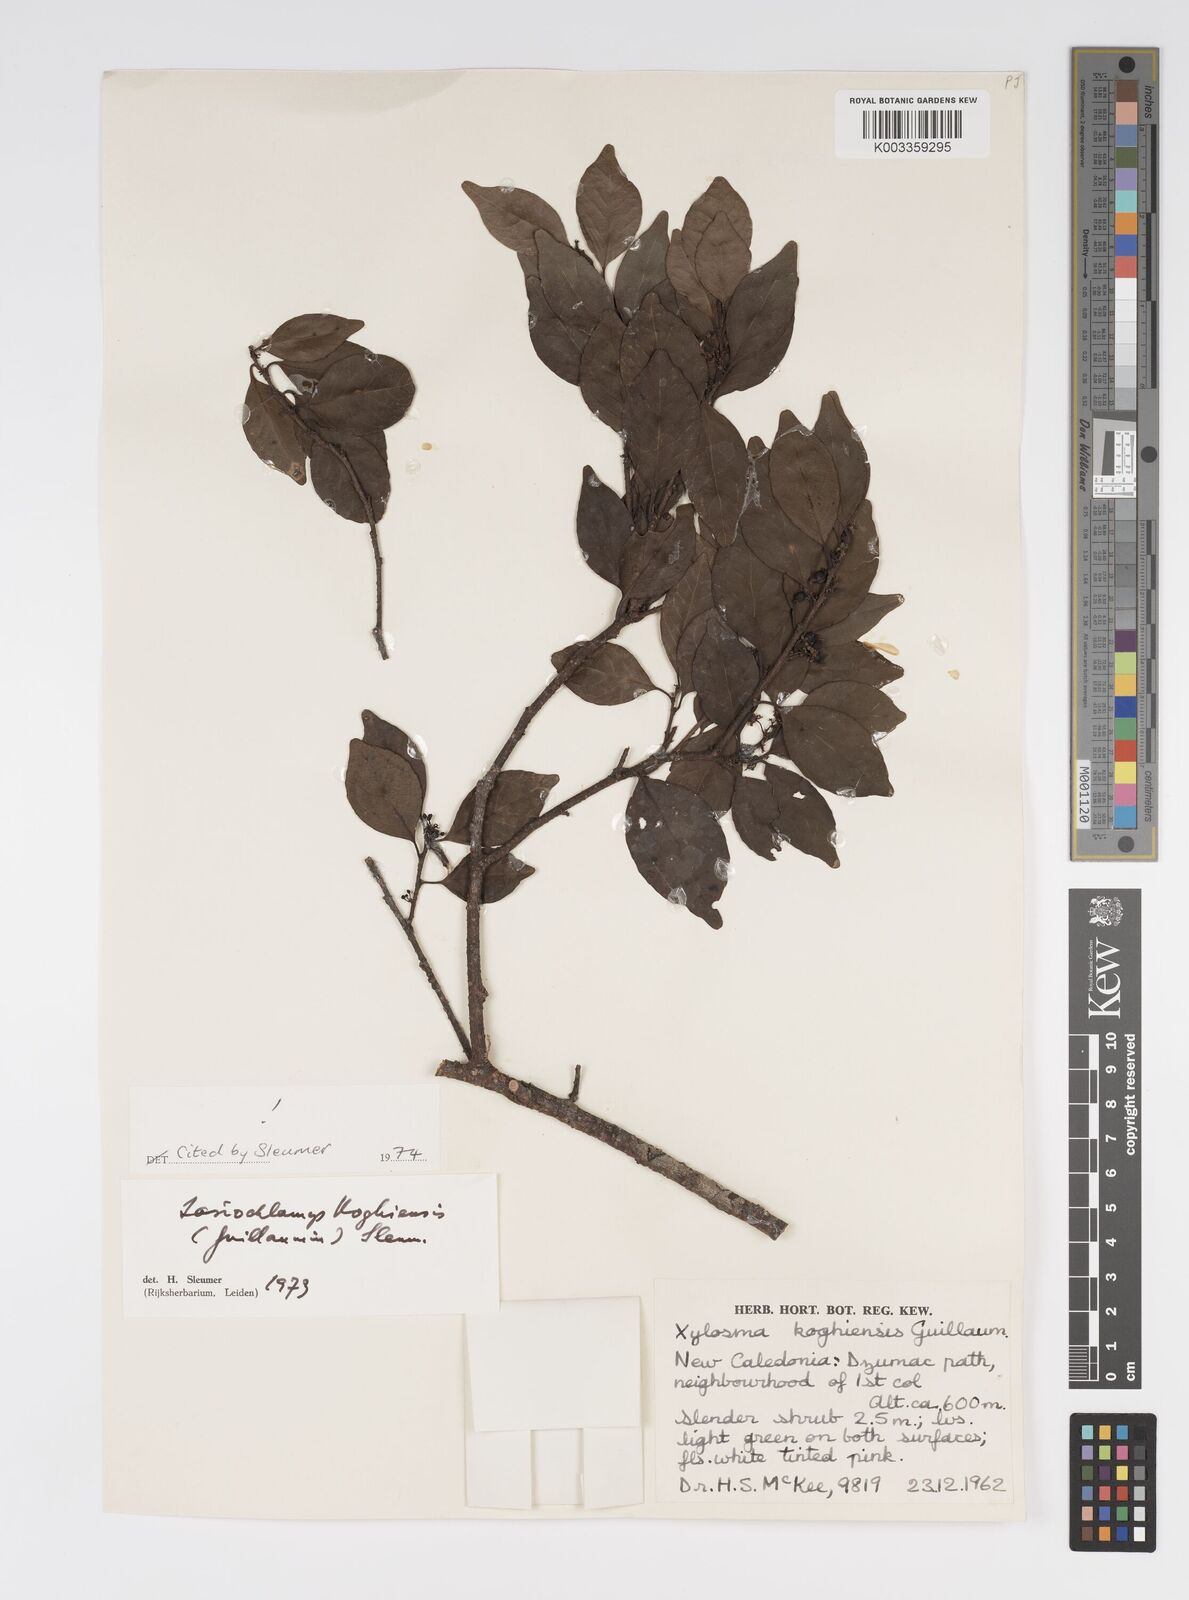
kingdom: Plantae
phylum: Tracheophyta
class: Magnoliopsida
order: Malpighiales
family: Salicaceae
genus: Lasiochlamys
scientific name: Lasiochlamys koghiensis
